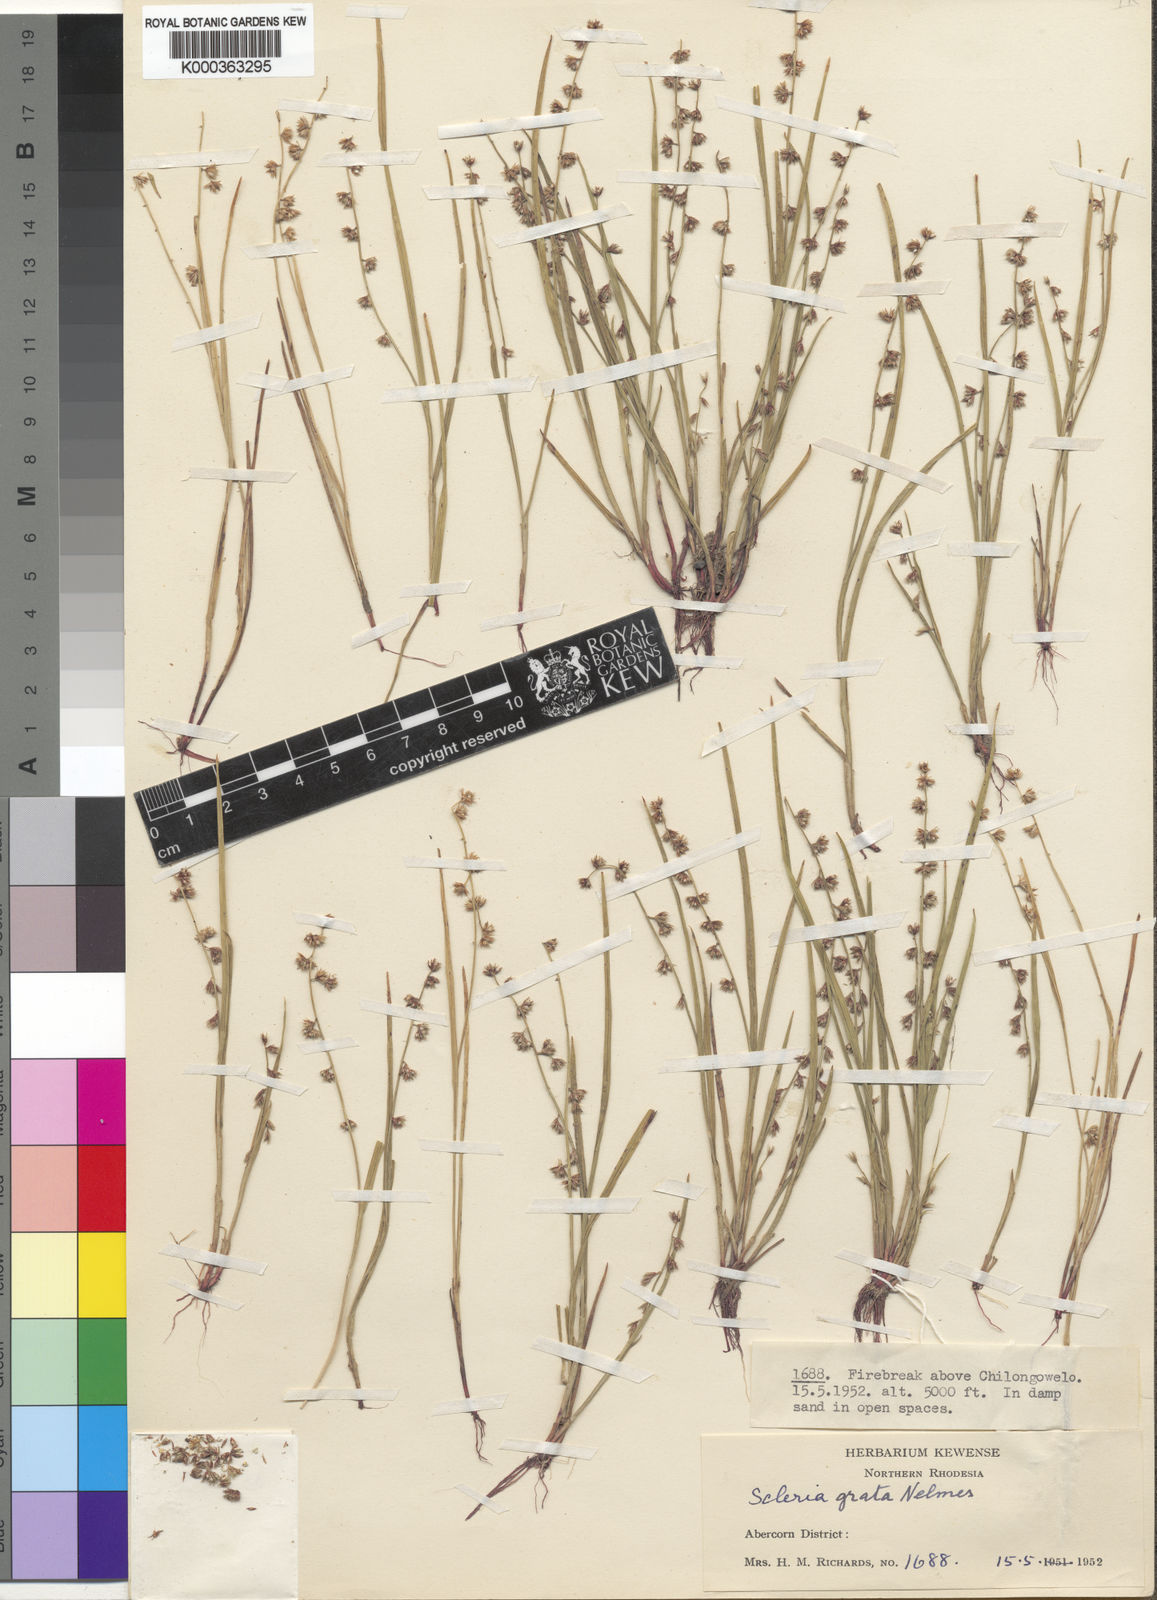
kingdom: Plantae
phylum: Tracheophyta
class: Liliopsida
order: Poales
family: Cyperaceae
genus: Scleria
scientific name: Scleria melanotricha
